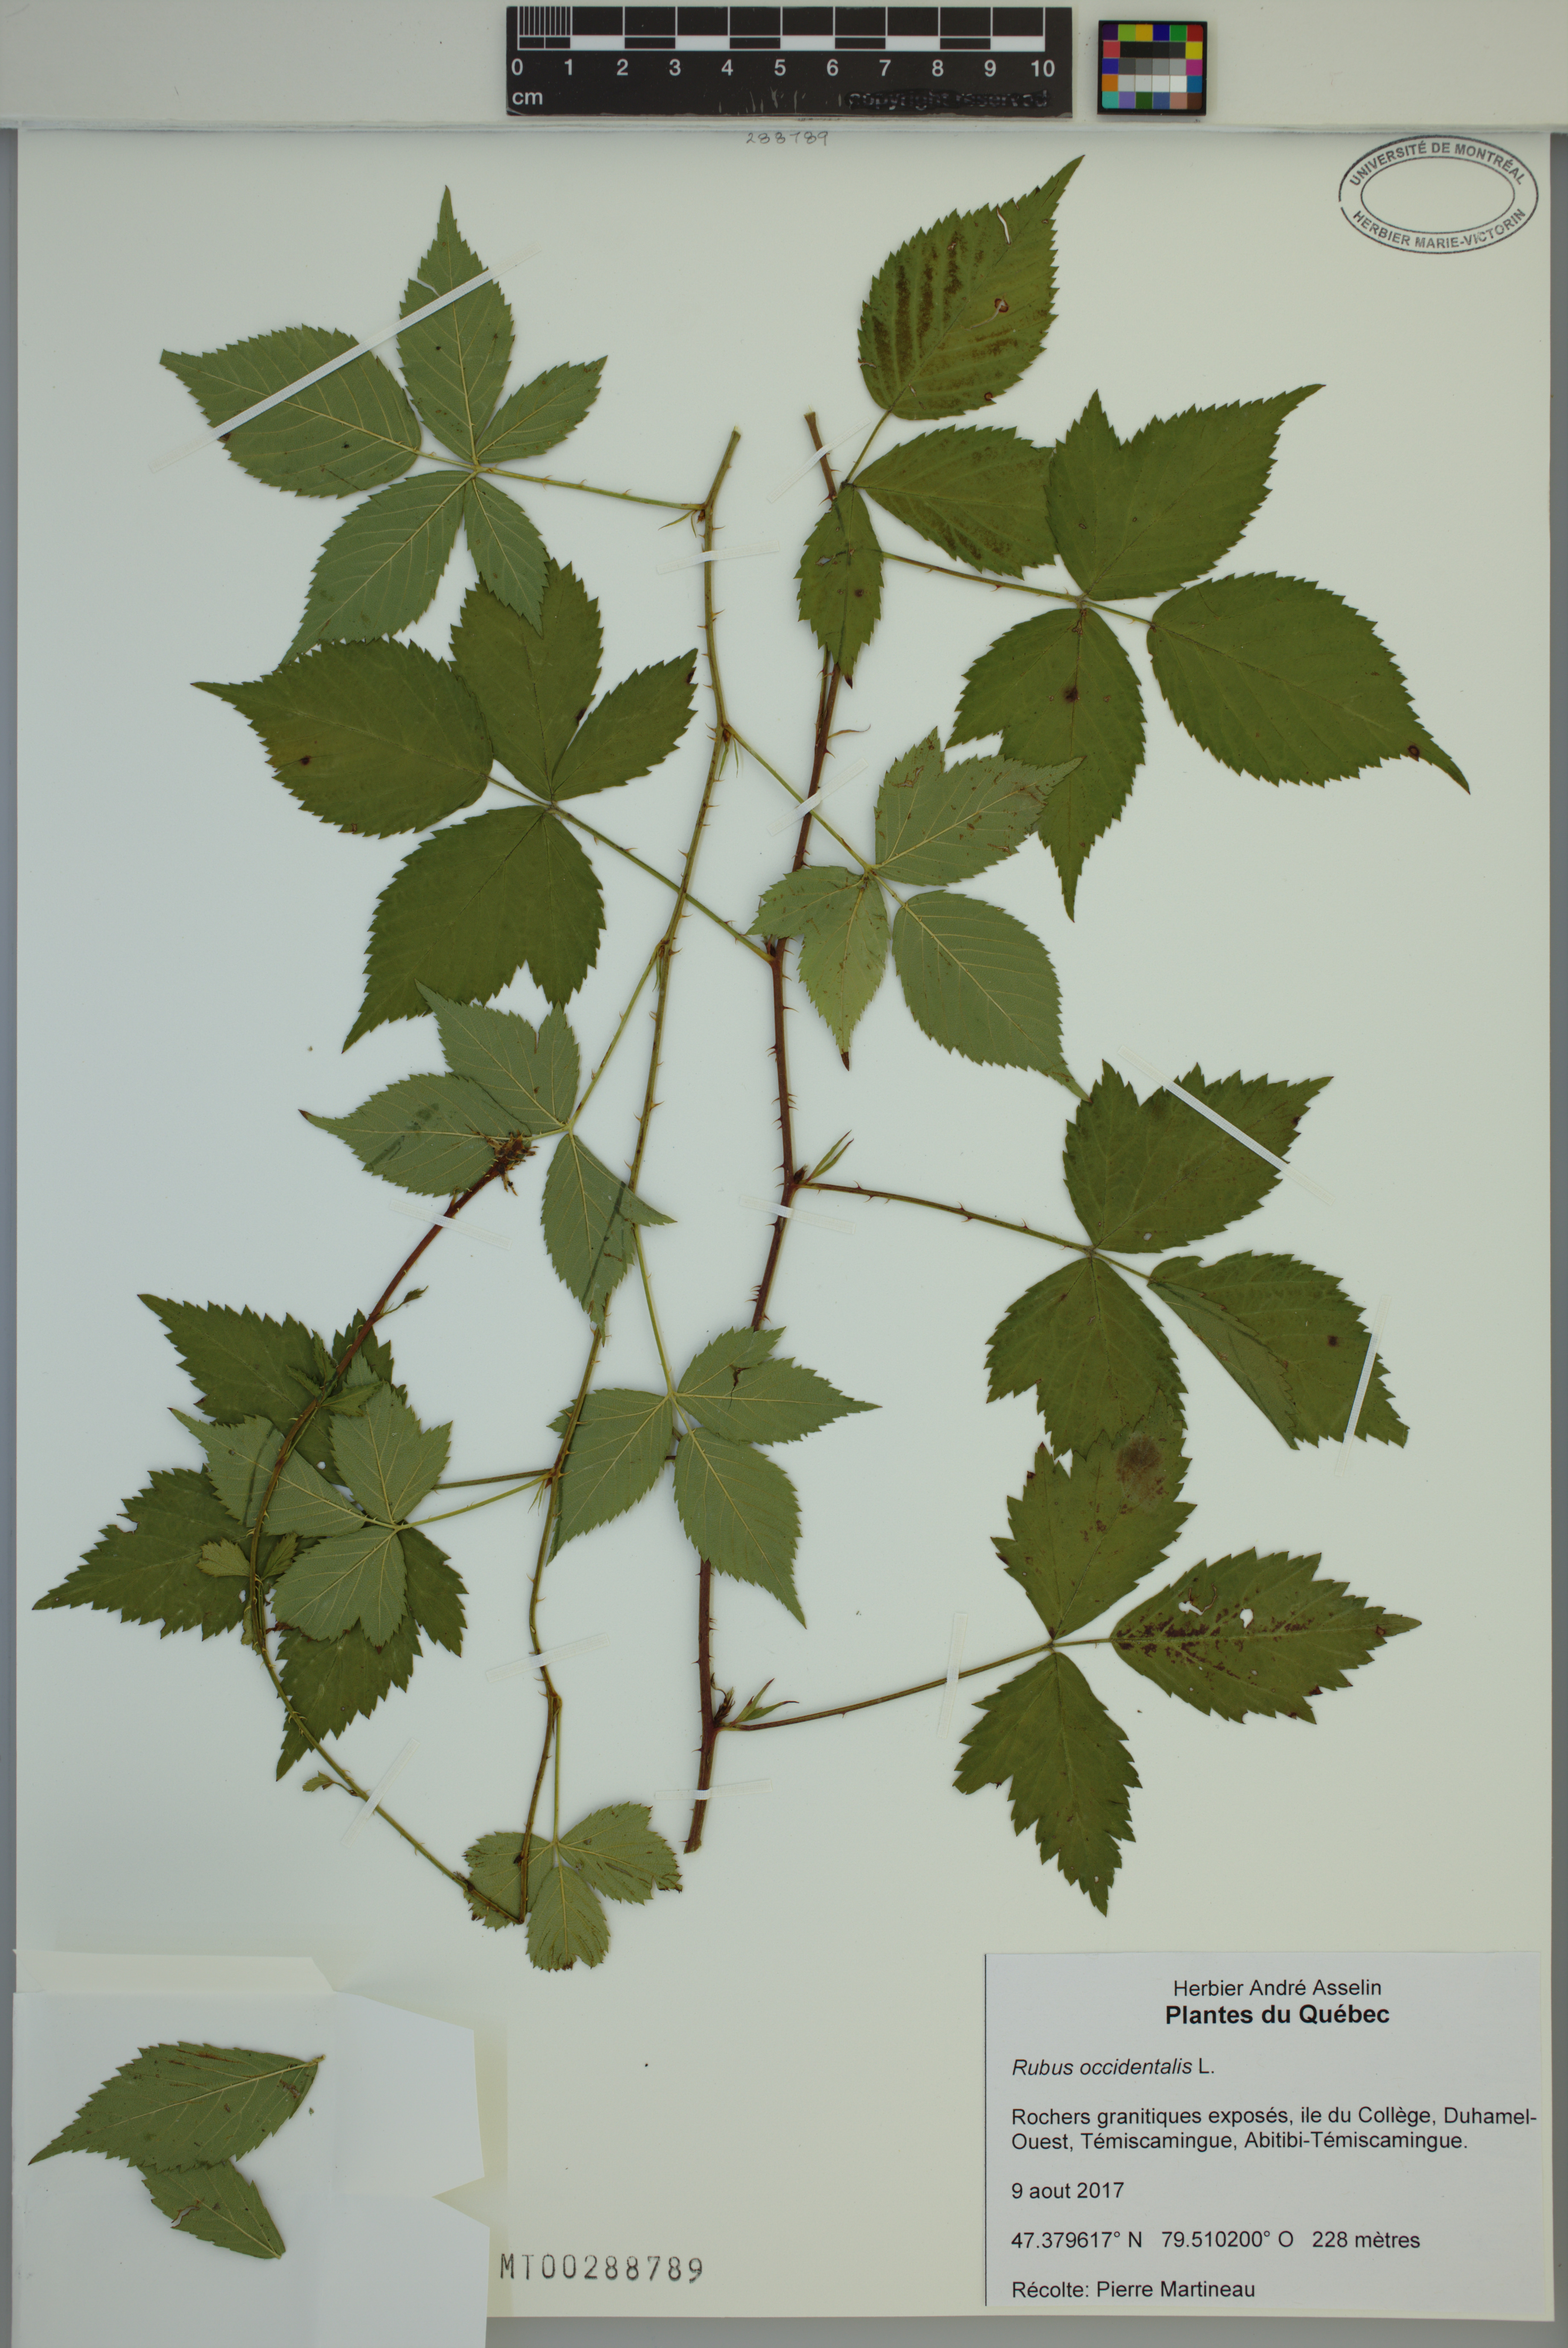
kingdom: Plantae
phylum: Tracheophyta
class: Magnoliopsida
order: Rosales
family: Rosaceae
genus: Rubus
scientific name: Rubus occidentalis
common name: Black raspberry
